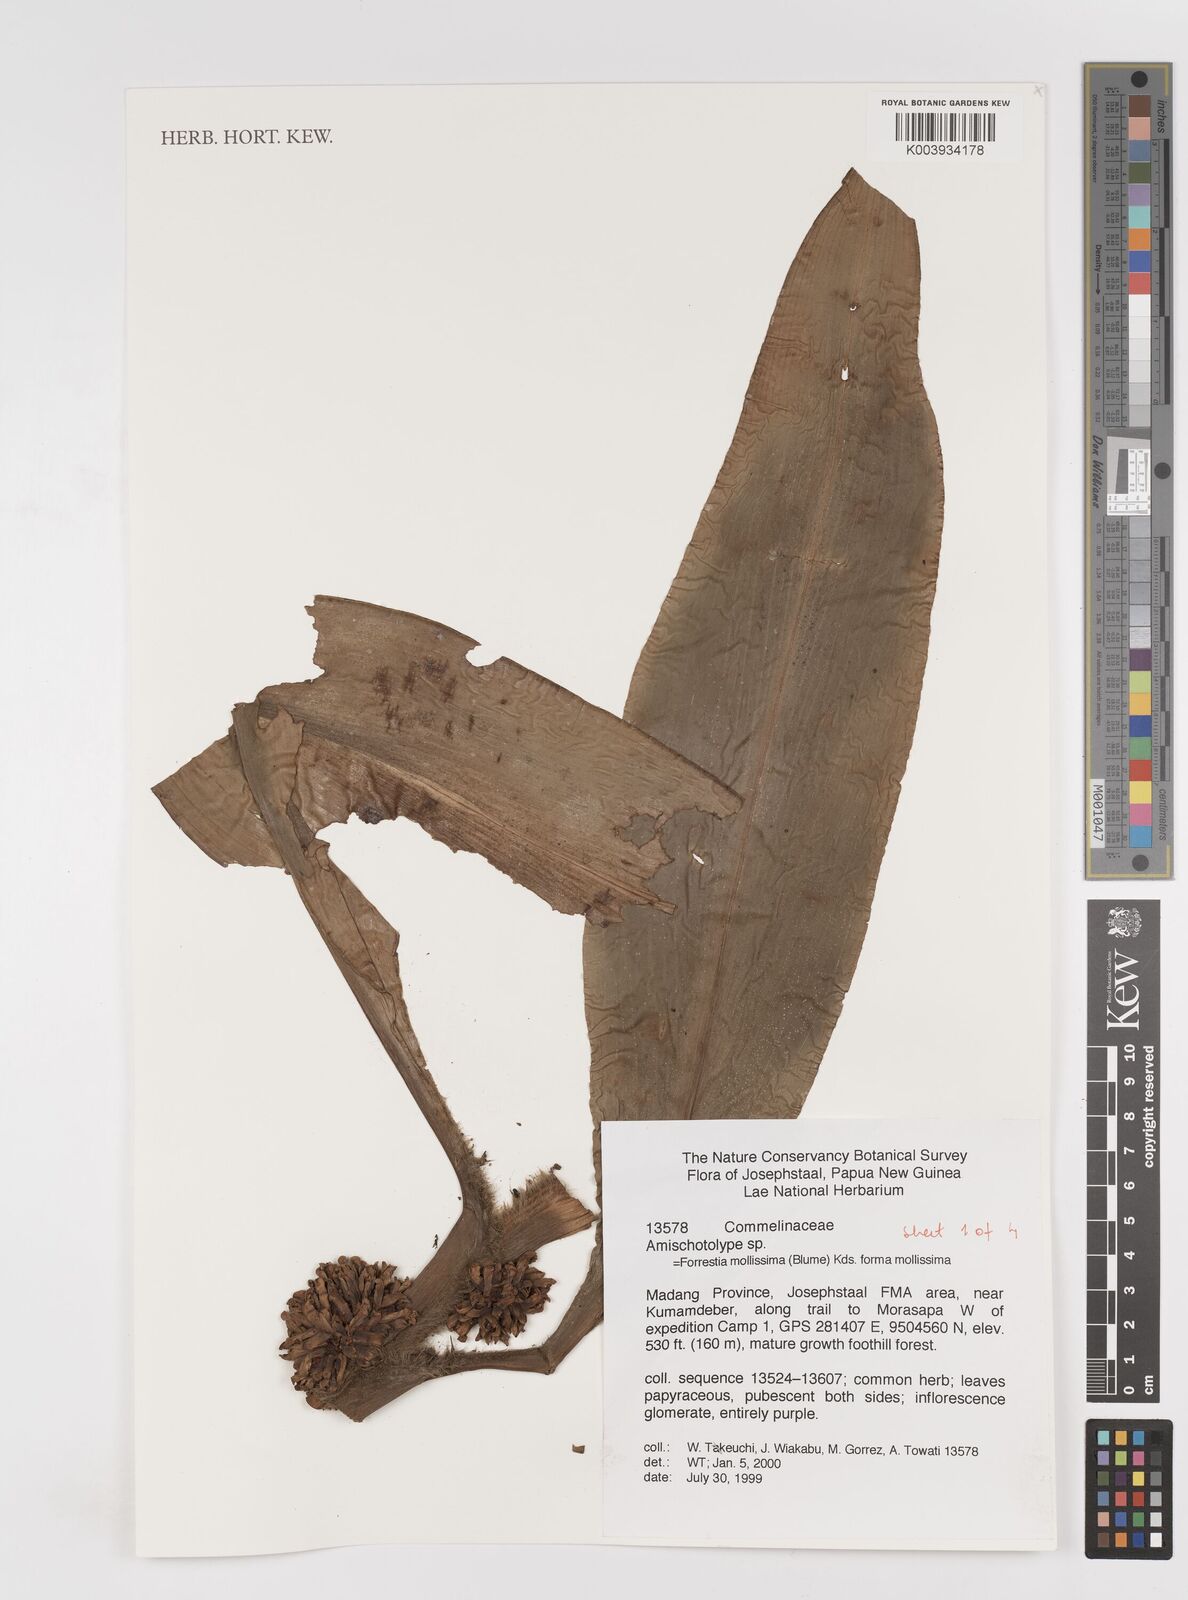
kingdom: Plantae
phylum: Tracheophyta
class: Liliopsida
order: Commelinales
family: Commelinaceae
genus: Amischotolype
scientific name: Amischotolype mollissima
